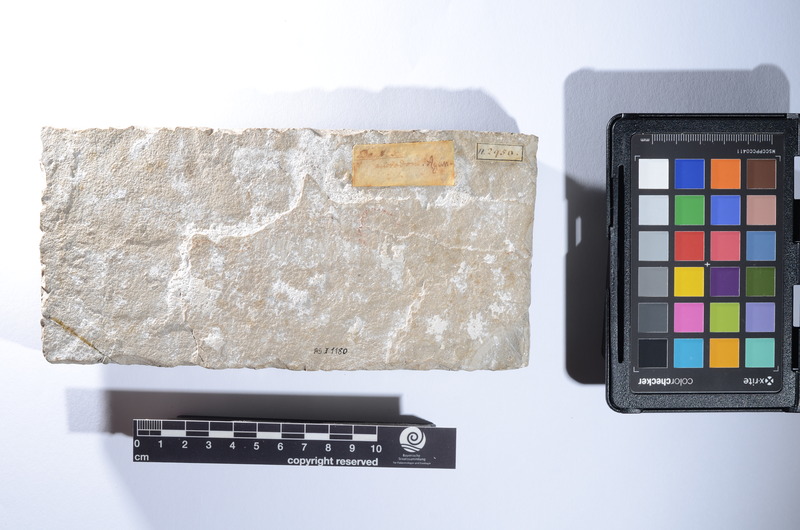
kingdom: Animalia
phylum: Chordata
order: Perciformes
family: Sparidae
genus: Dentex
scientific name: Dentex microdon
